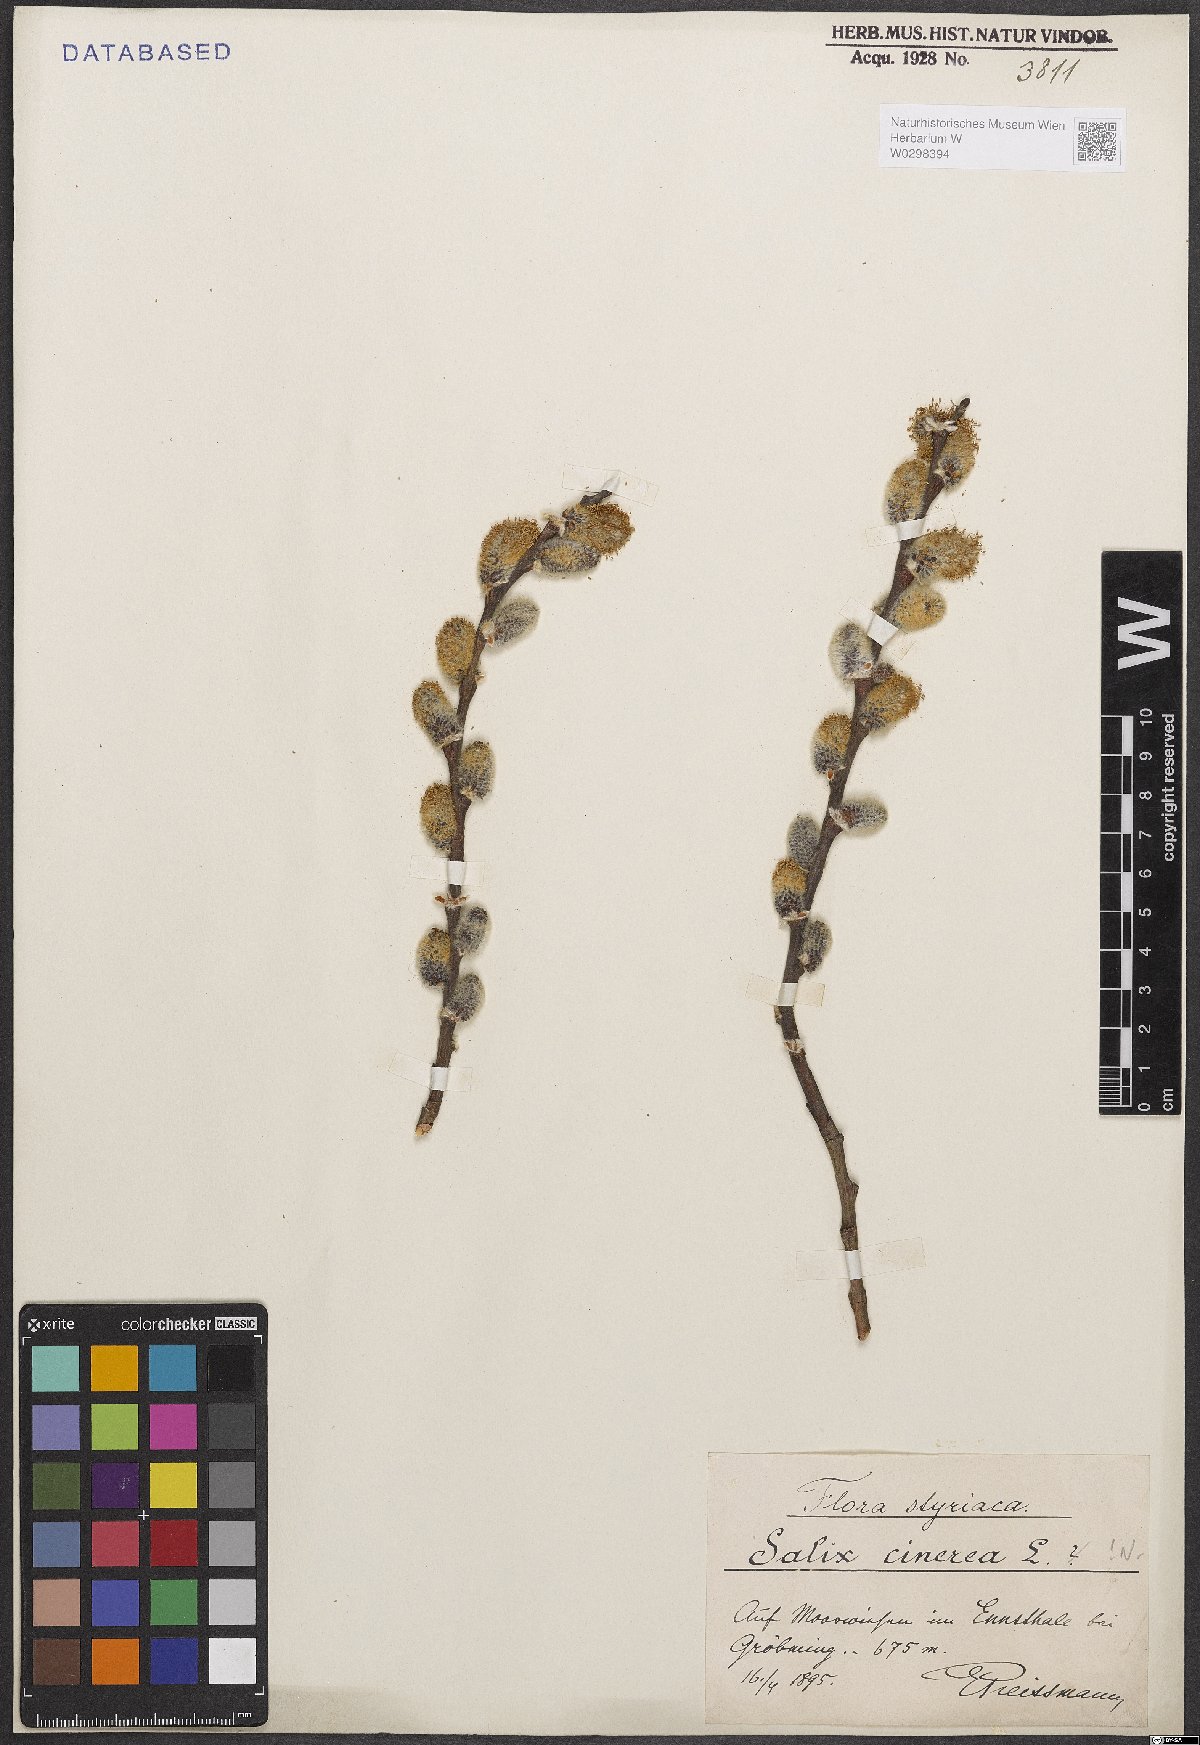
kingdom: Plantae
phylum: Tracheophyta
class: Magnoliopsida
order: Malpighiales
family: Salicaceae
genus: Salix
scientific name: Salix cinerea
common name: Common sallow
